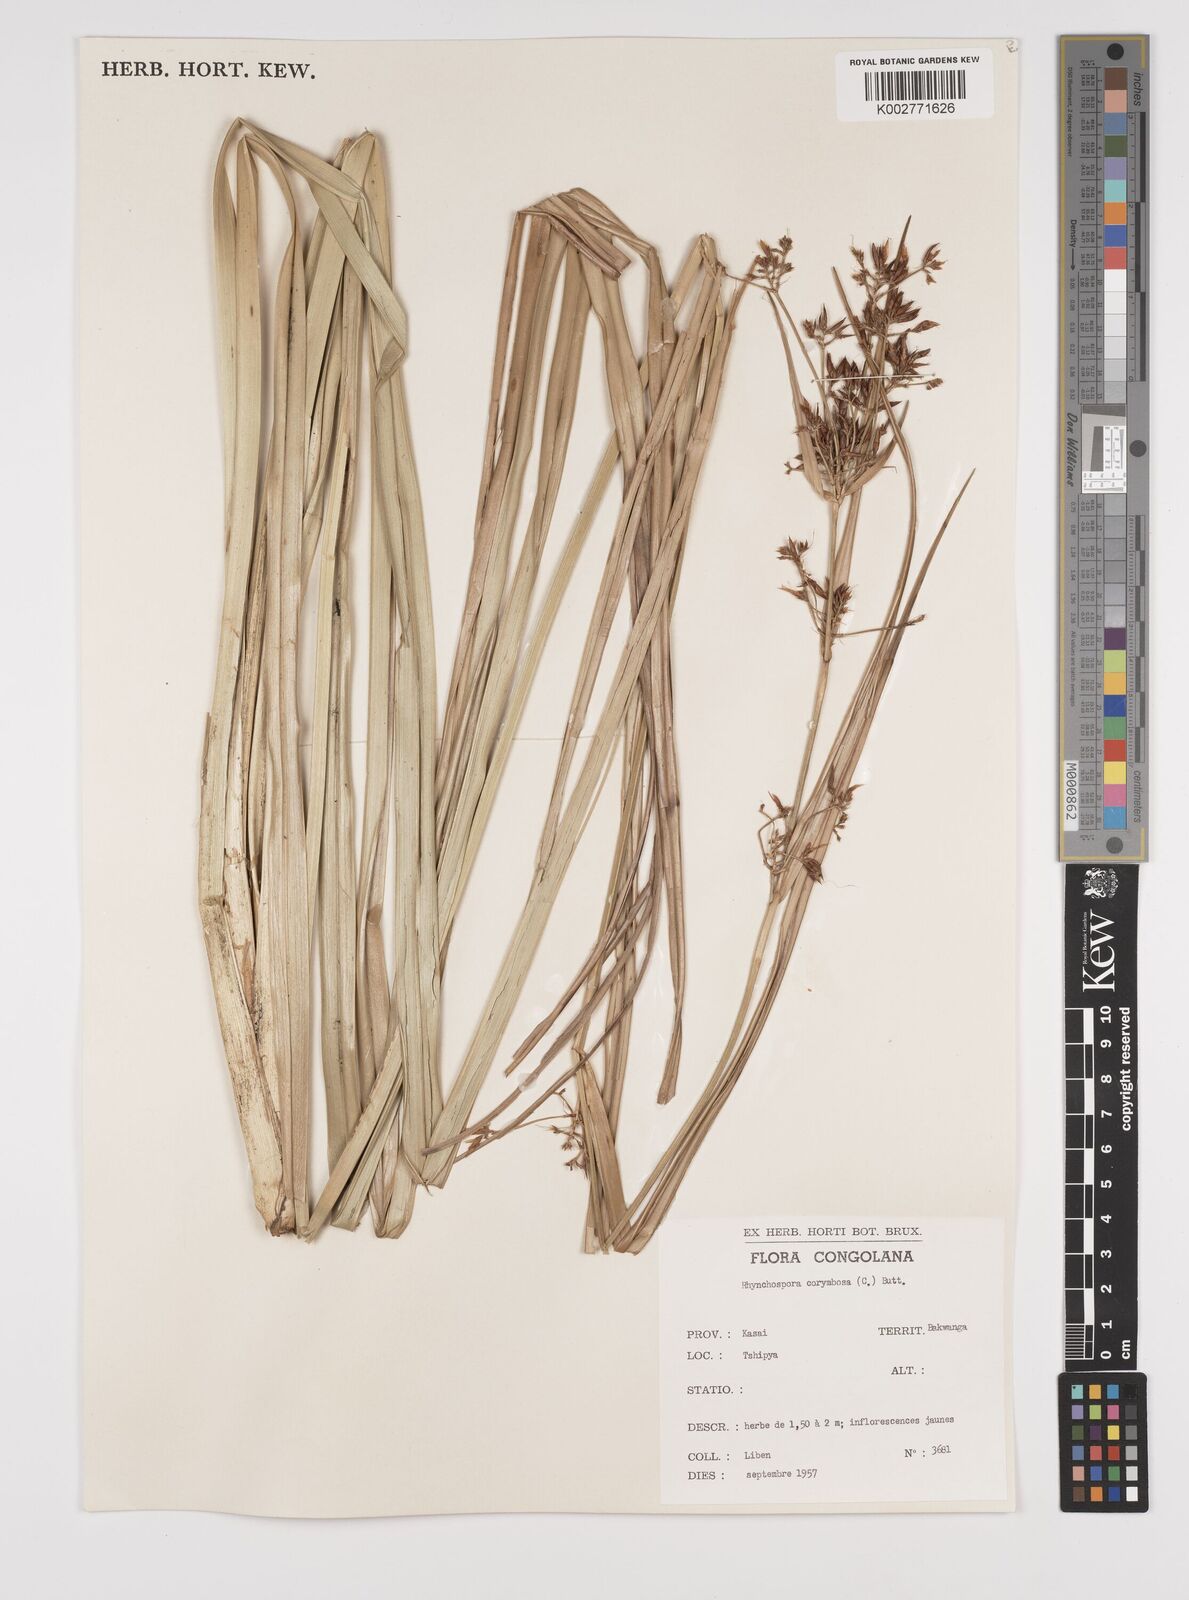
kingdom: Plantae
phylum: Tracheophyta
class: Liliopsida
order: Poales
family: Cyperaceae
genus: Rhynchospora
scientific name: Rhynchospora corymbosa
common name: Golden beak sedge
